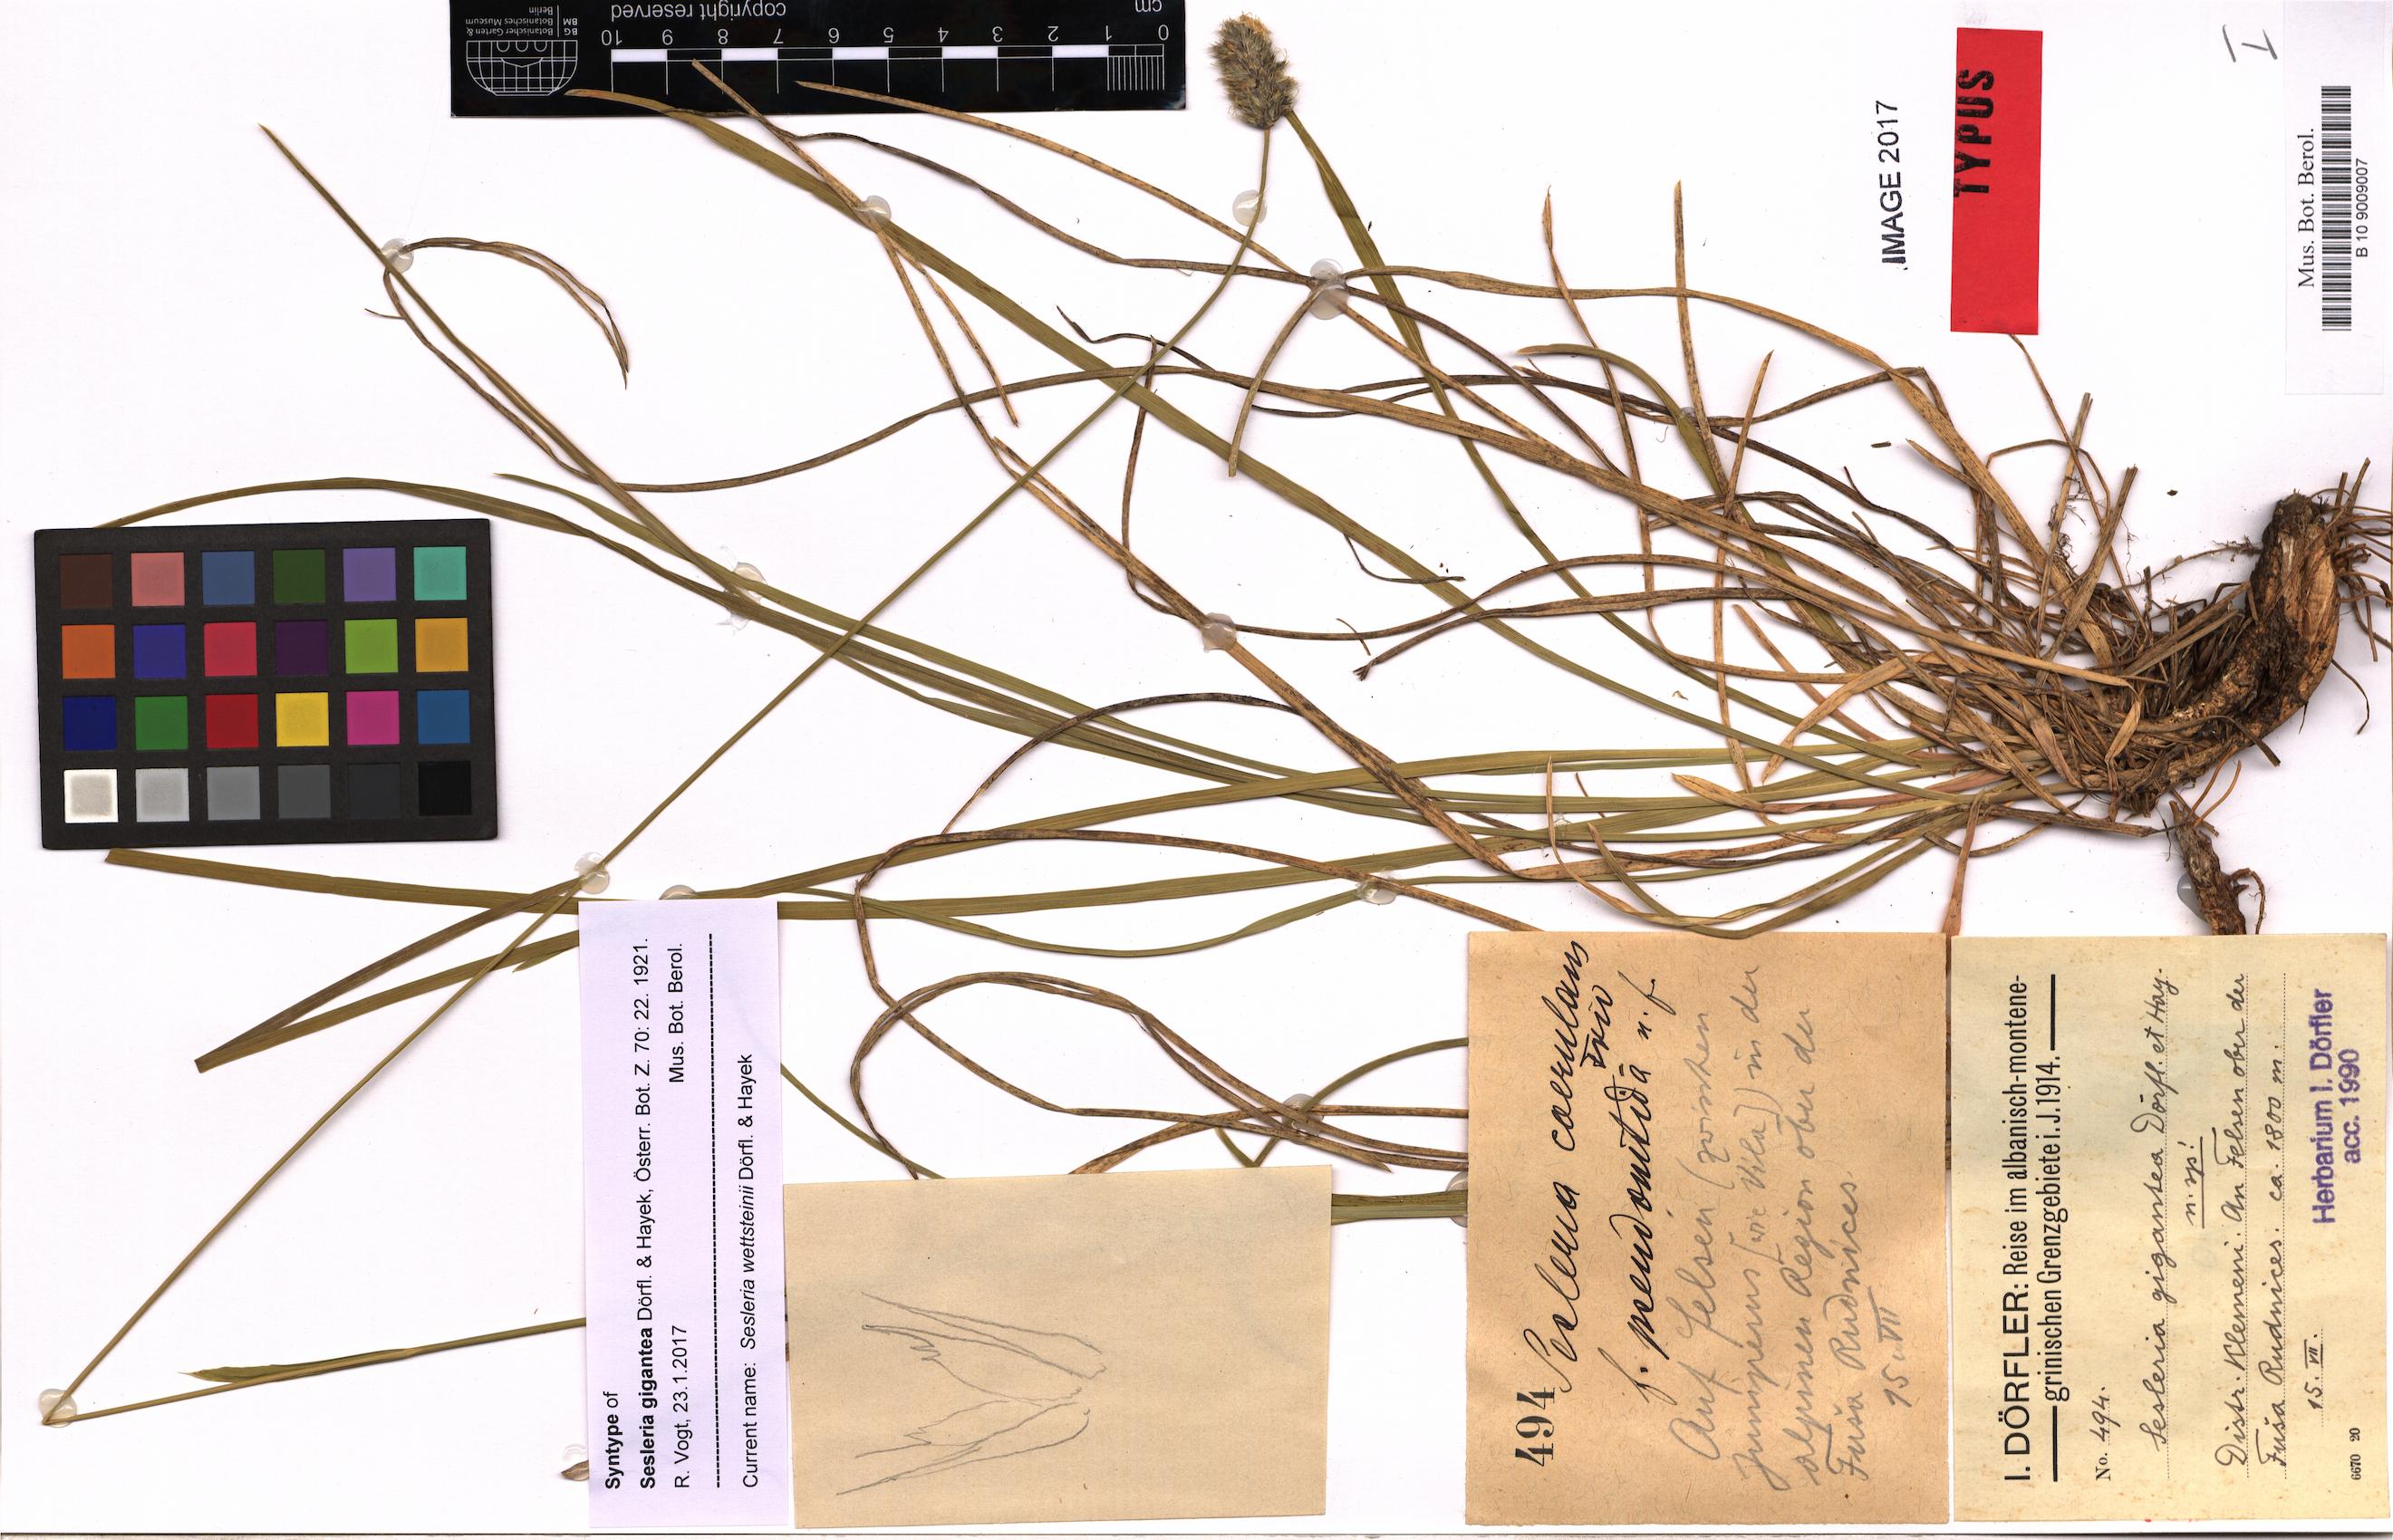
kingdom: Plantae
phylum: Tracheophyta
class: Liliopsida
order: Poales
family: Poaceae
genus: Sesleria
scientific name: Sesleria wettsteinii
